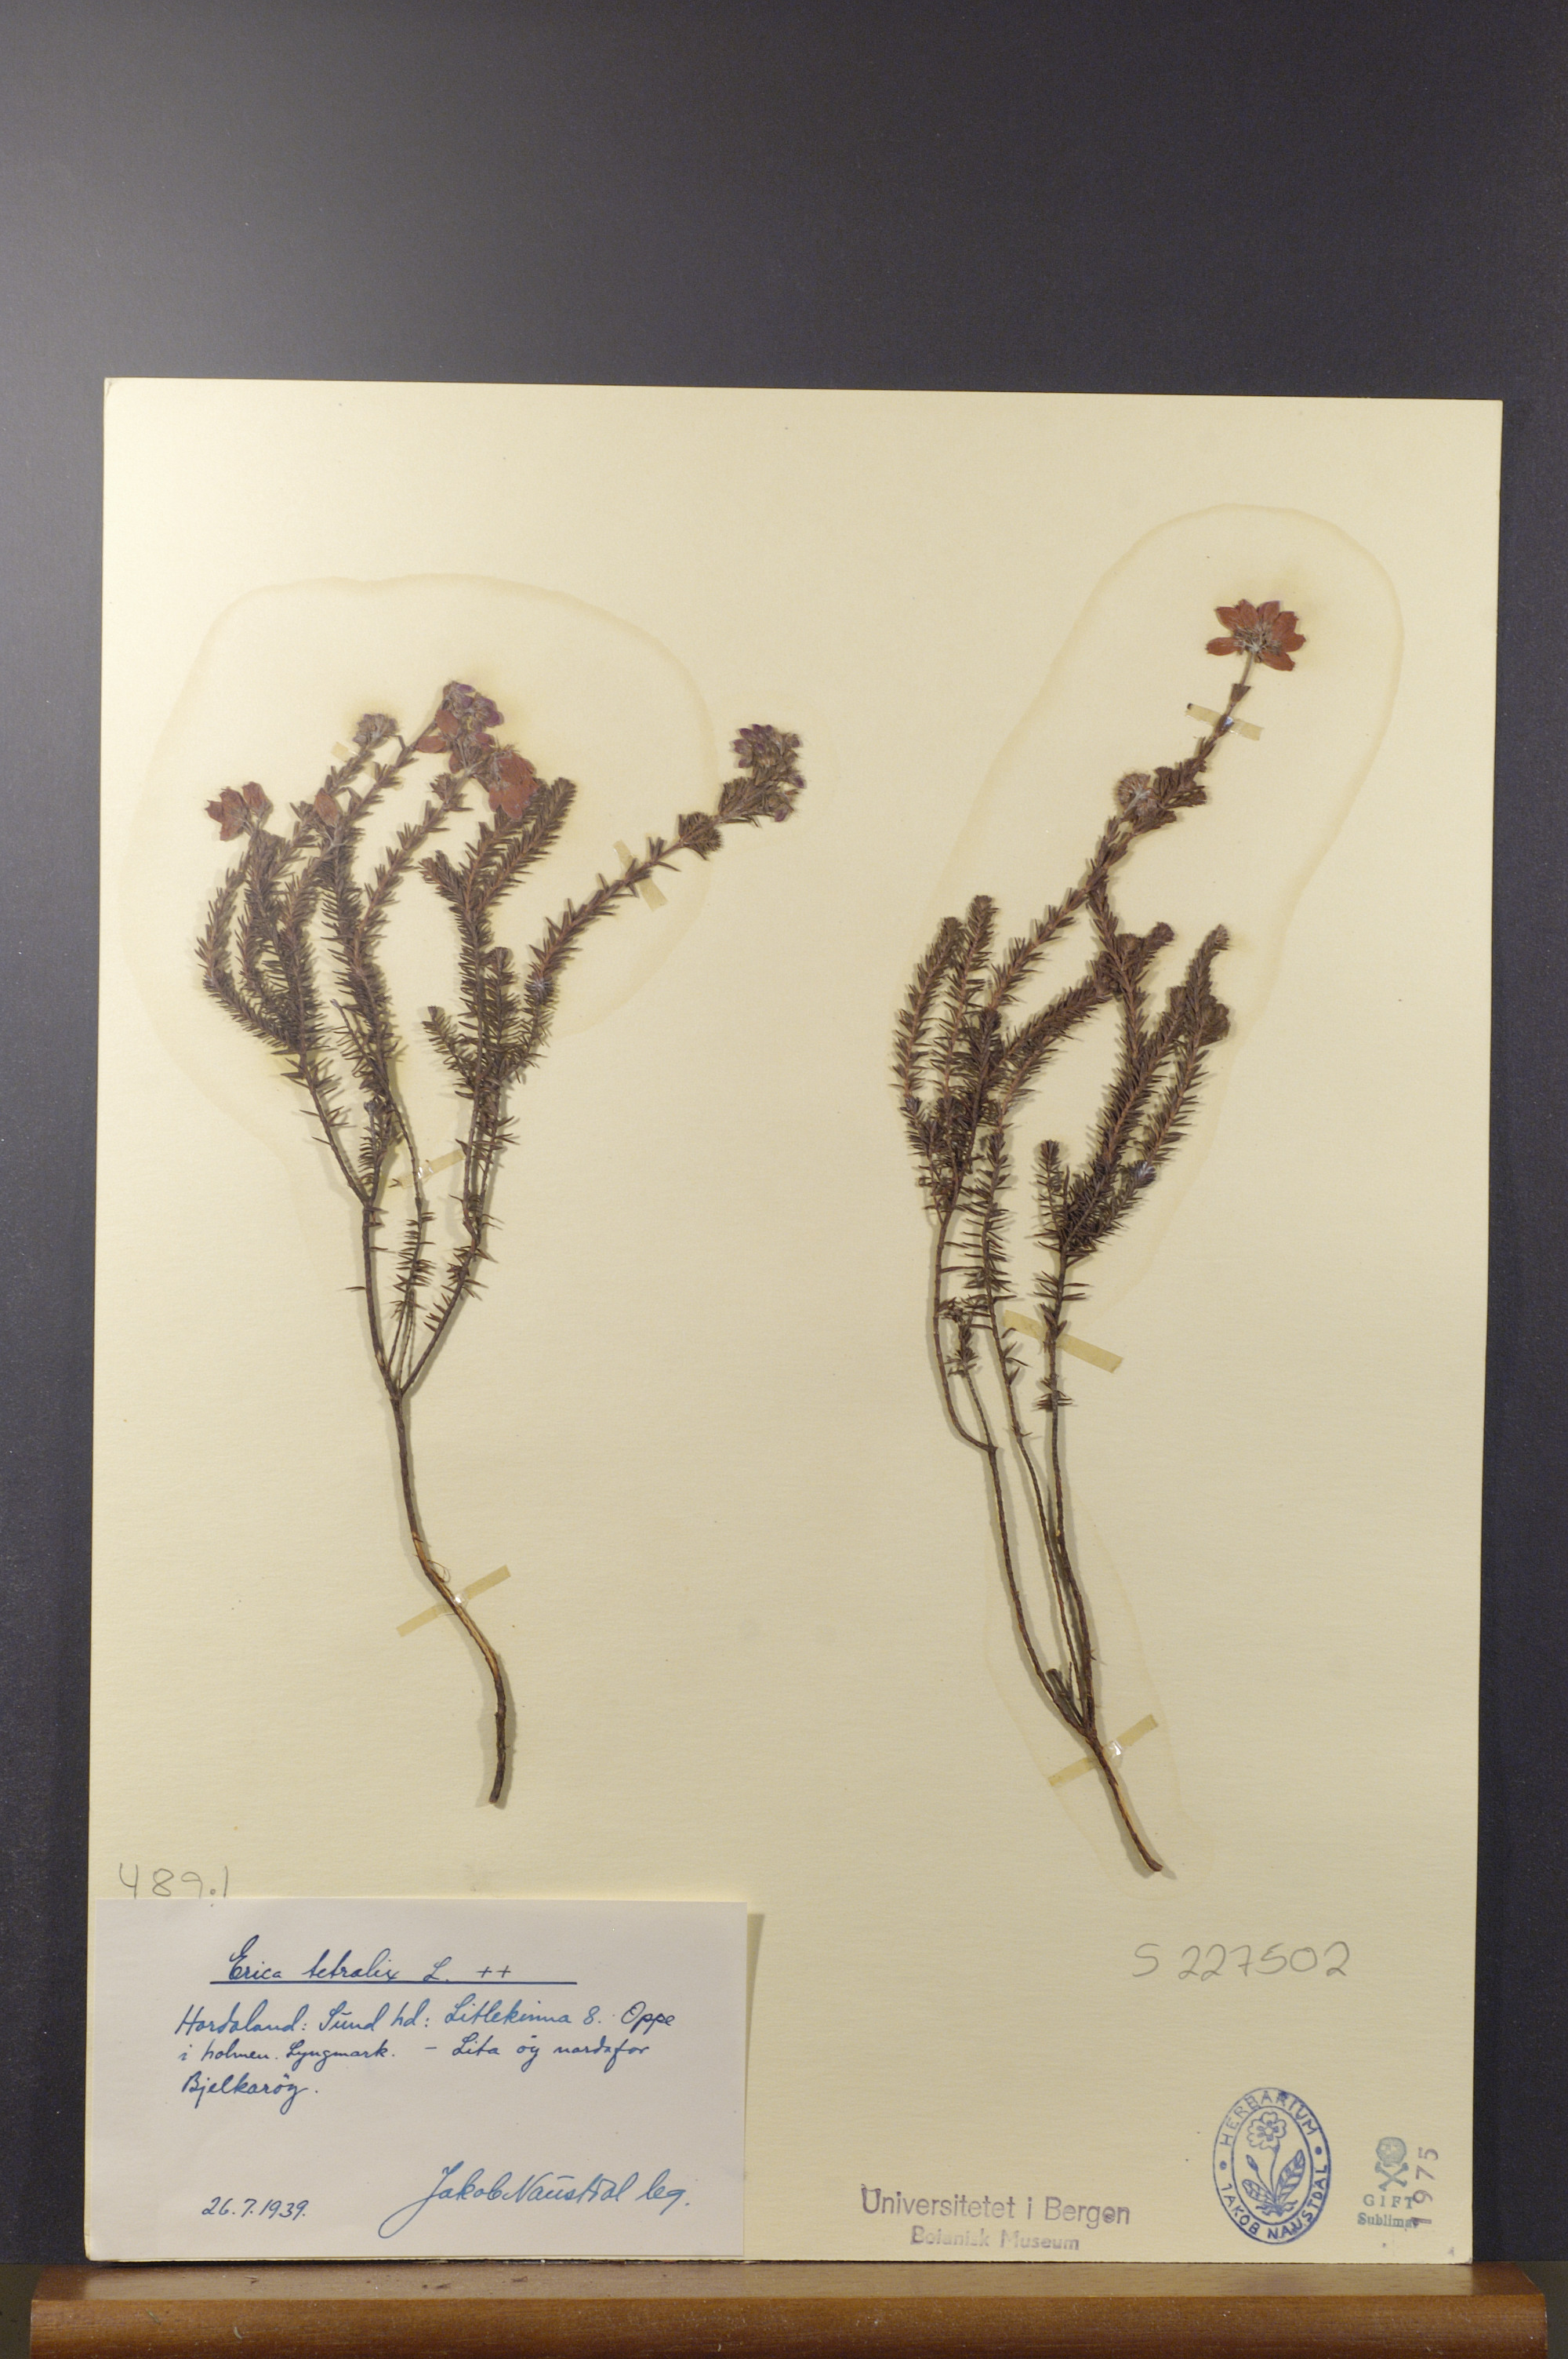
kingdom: Plantae
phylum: Tracheophyta
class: Magnoliopsida
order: Ericales
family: Ericaceae
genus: Erica
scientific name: Erica tetralix
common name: Cross-leaved heath
